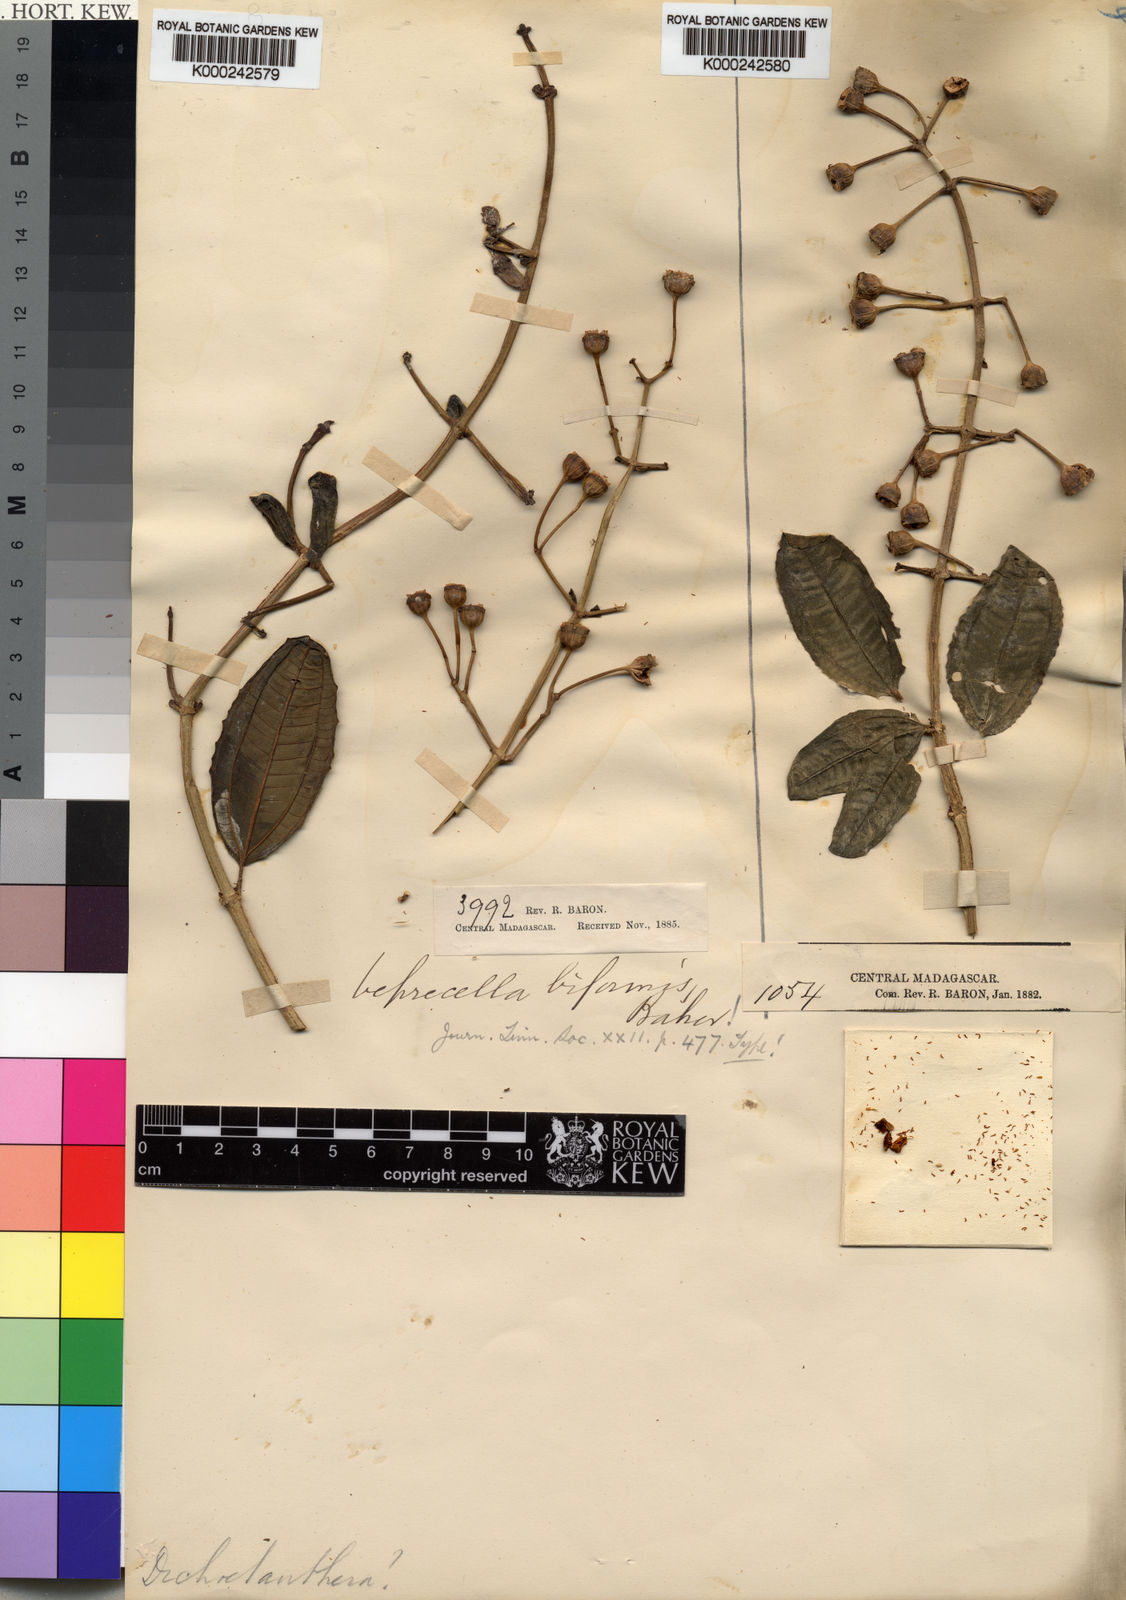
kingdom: Plantae
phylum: Tracheophyta
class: Magnoliopsida
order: Myrtales
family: Melastomataceae
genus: Gravesia
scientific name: Gravesia laxiflora
